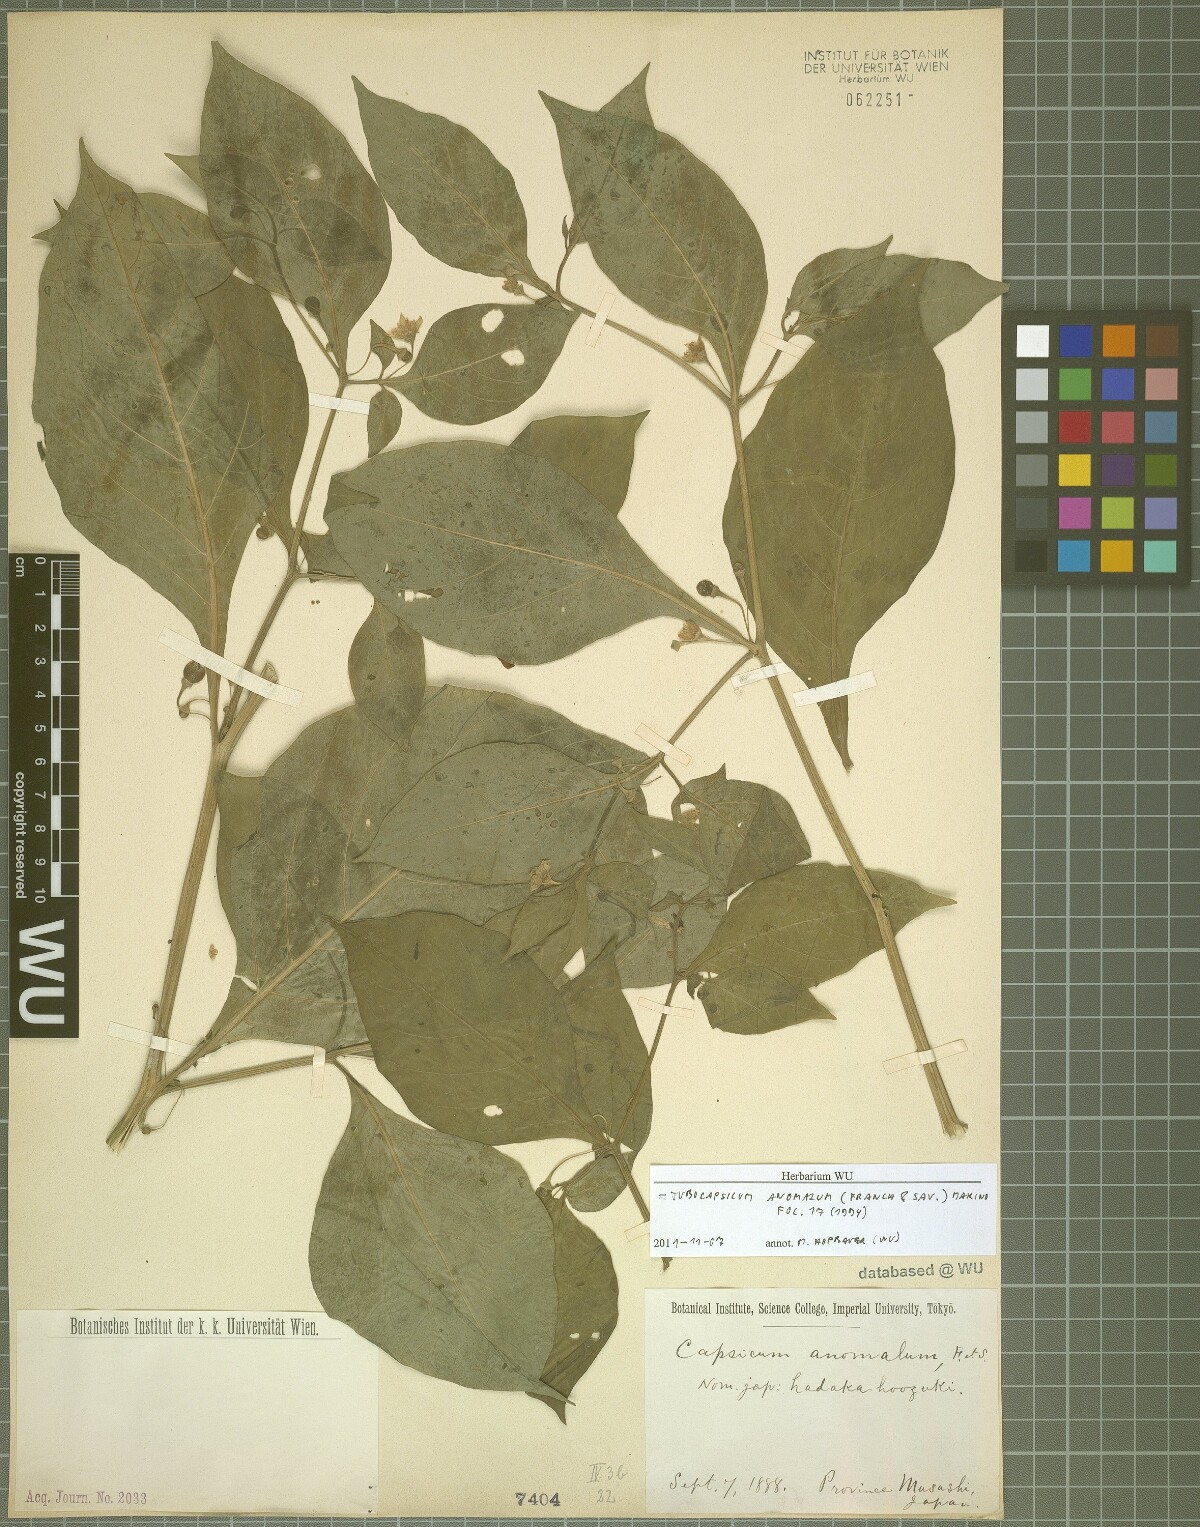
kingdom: Plantae
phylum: Tracheophyta
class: Magnoliopsida
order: Solanales
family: Solanaceae
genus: Tubocapsicum
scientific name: Tubocapsicum anomalum
